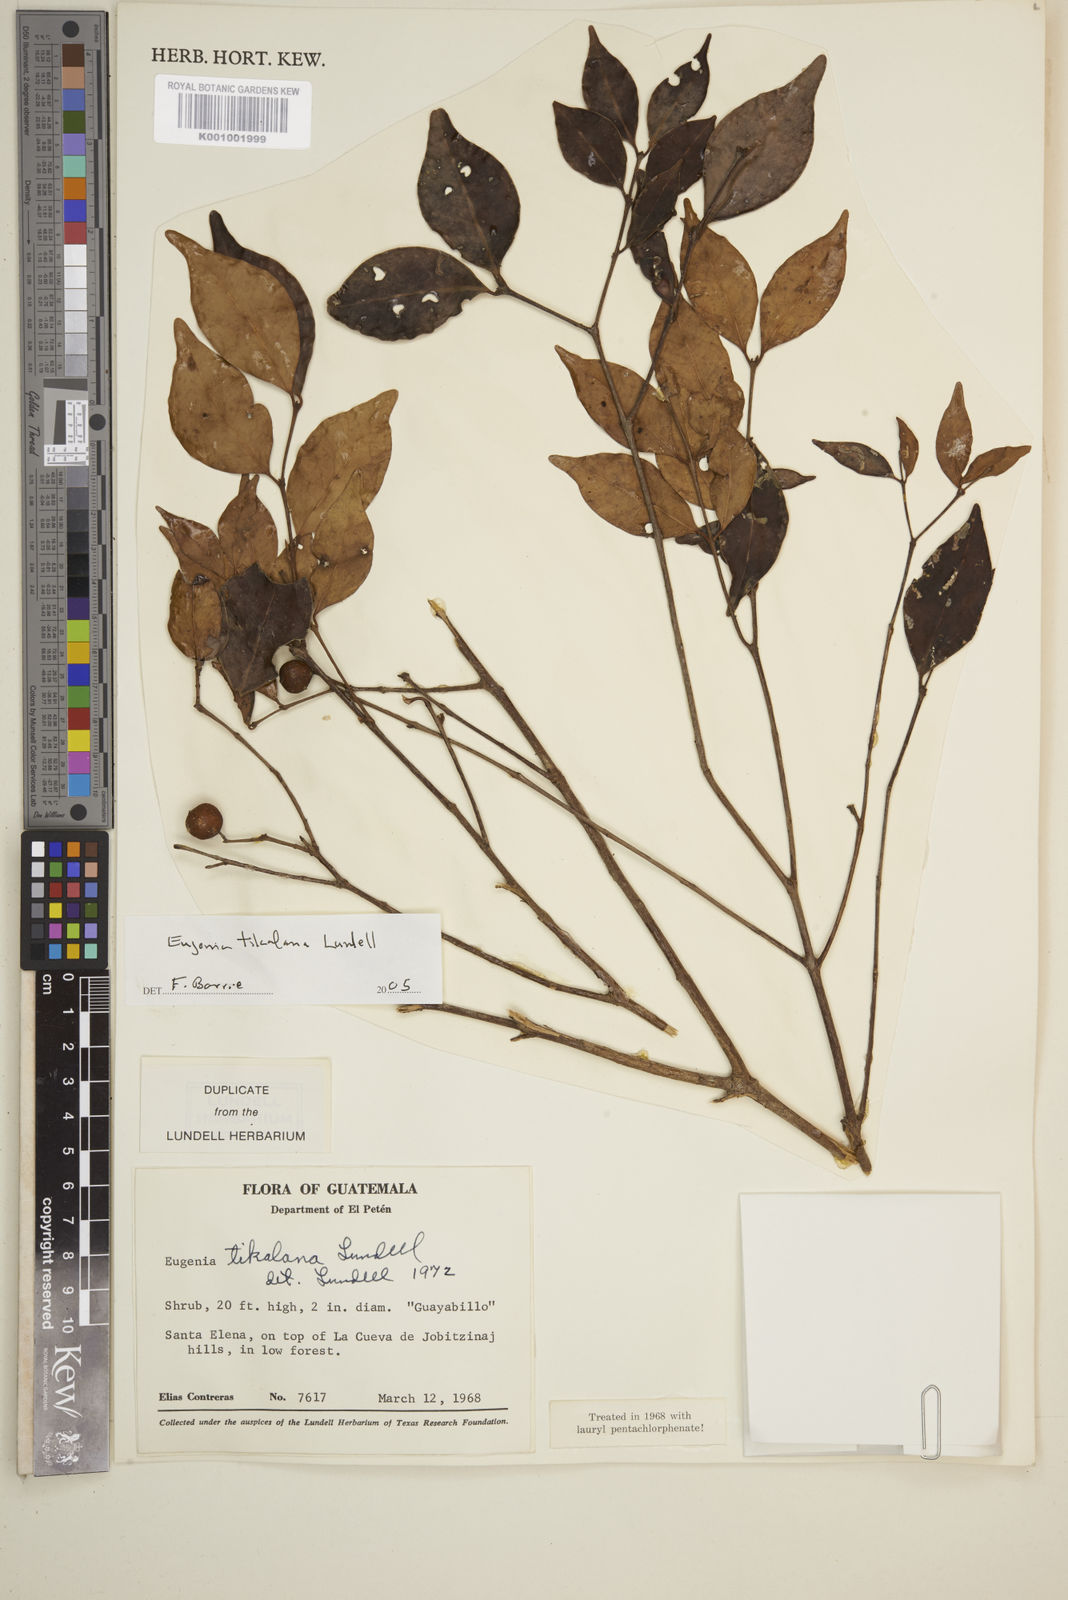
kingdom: Plantae
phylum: Tracheophyta
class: Magnoliopsida
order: Myrtales
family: Myrtaceae
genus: Eugenia
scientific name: Eugenia tikalana
